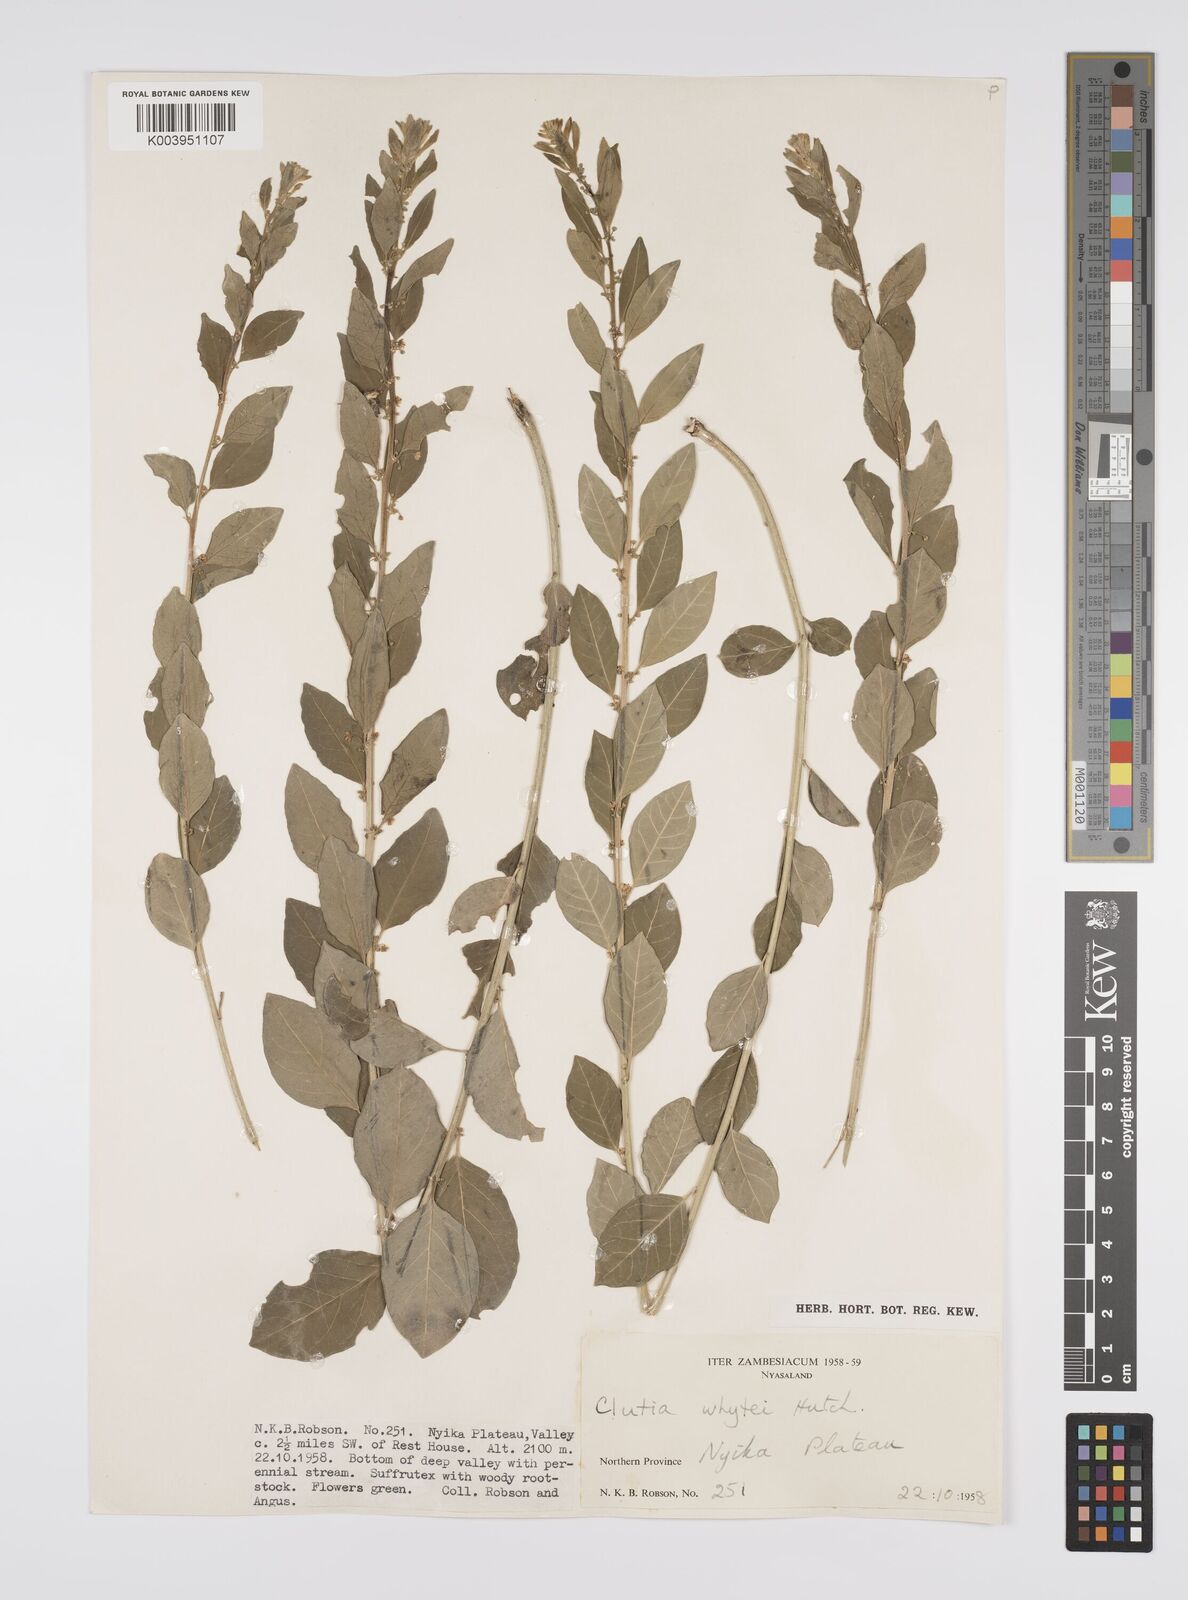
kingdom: Plantae
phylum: Tracheophyta
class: Magnoliopsida
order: Malpighiales
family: Peraceae
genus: Clutia
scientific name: Clutia
